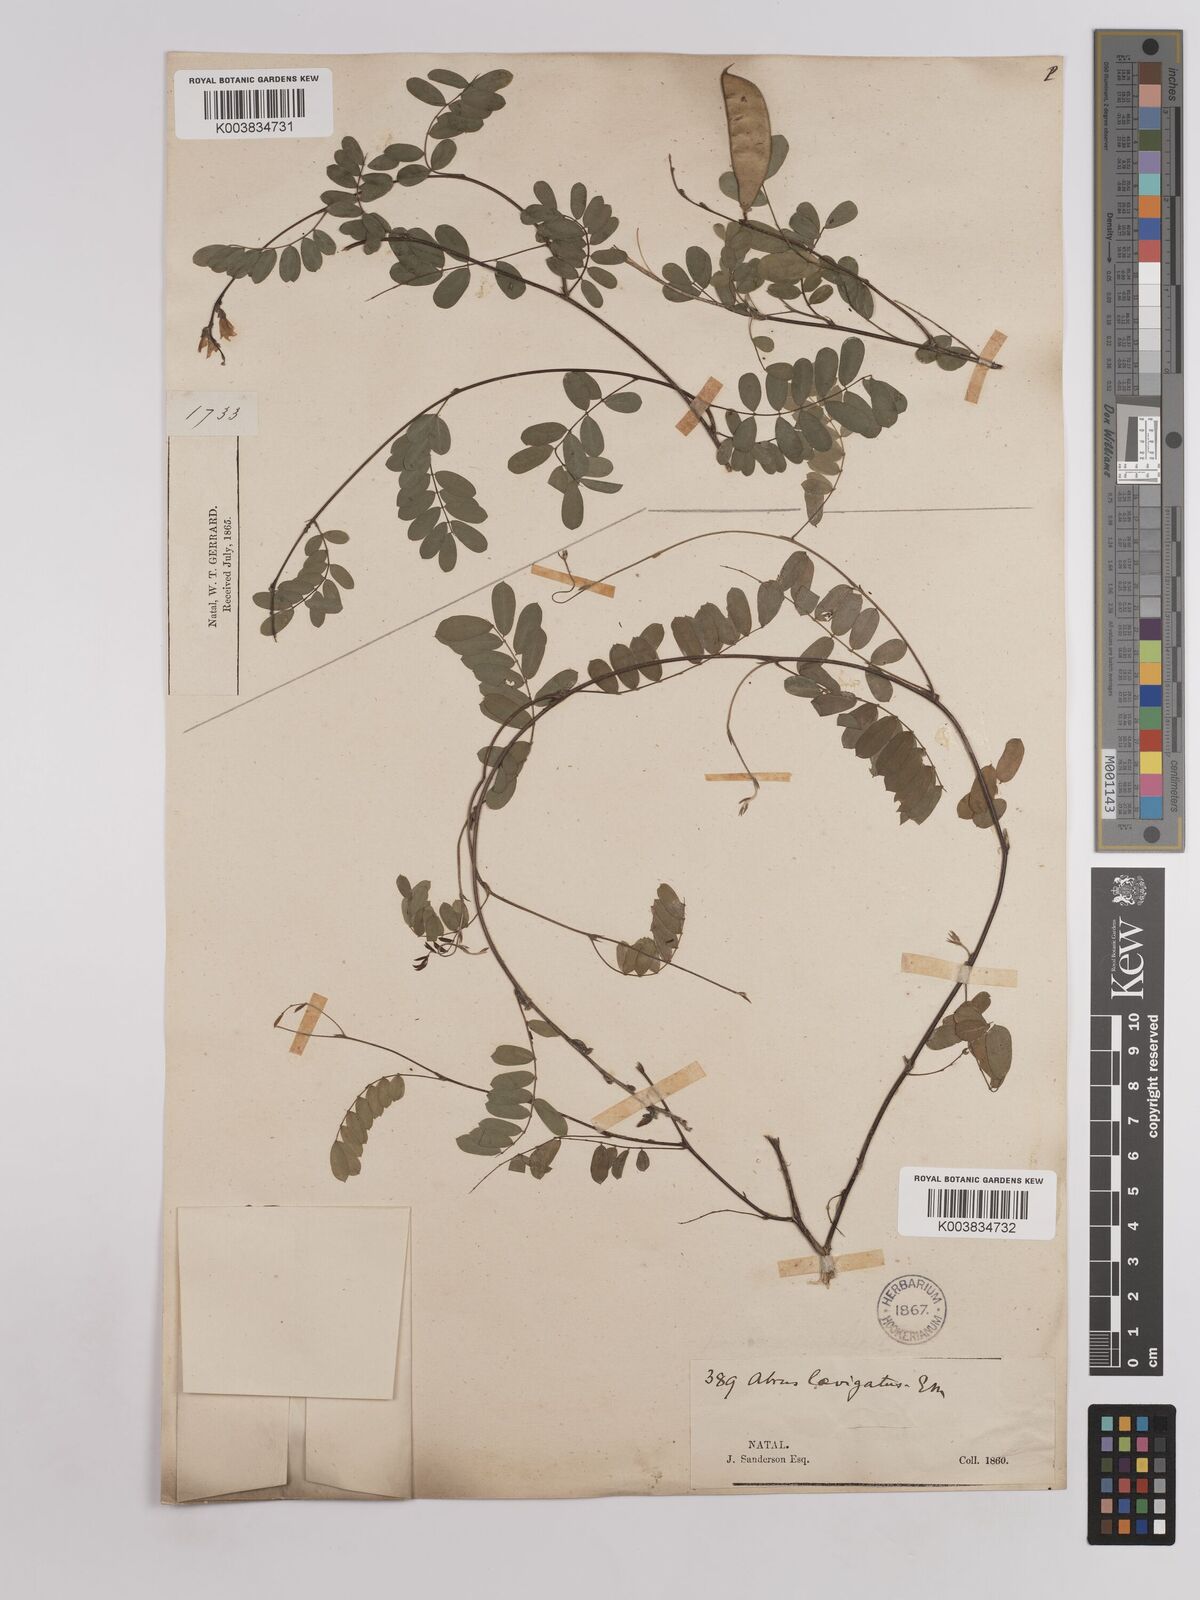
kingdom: Plantae
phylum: Tracheophyta
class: Magnoliopsida
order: Fabales
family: Fabaceae
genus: Abrus
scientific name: Abrus laevigatus
